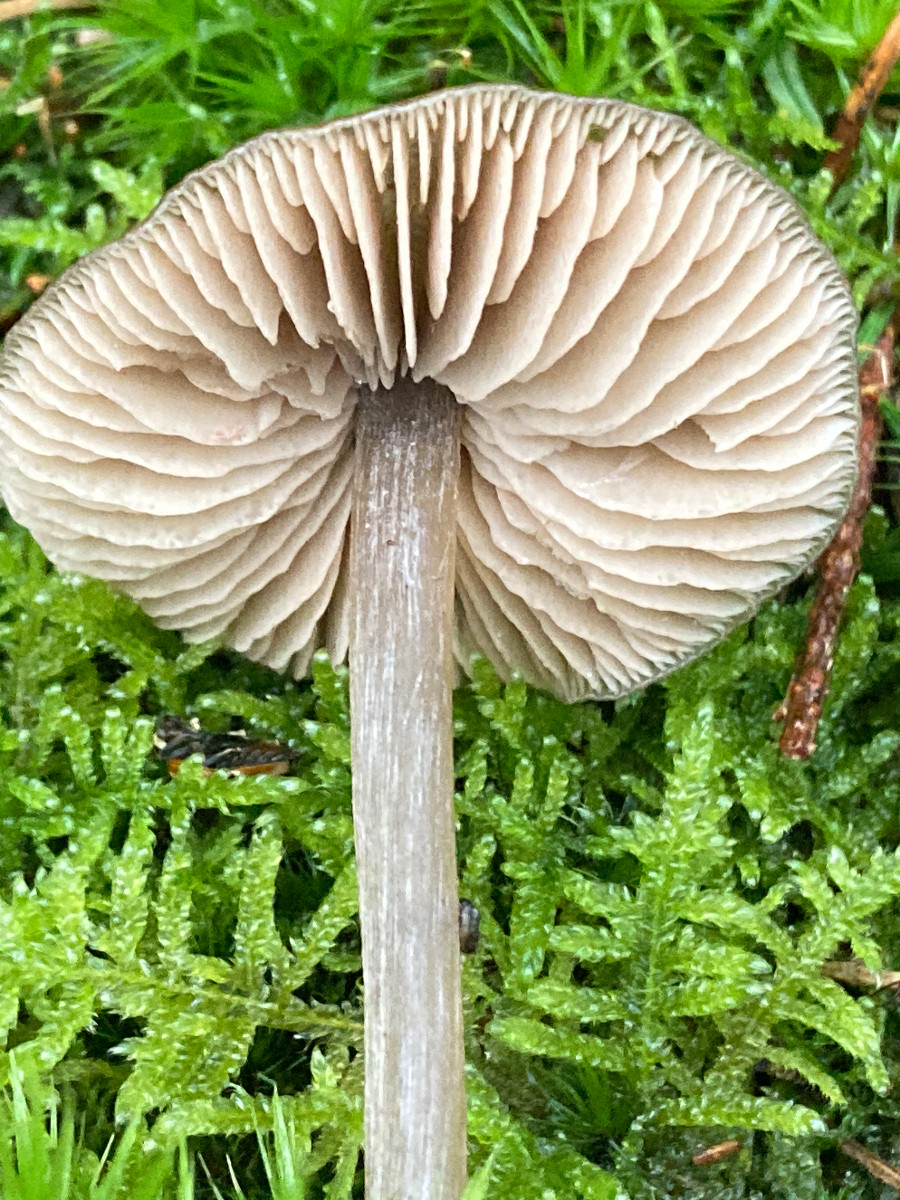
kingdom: Fungi
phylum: Basidiomycota
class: Agaricomycetes
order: Agaricales
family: Entolomataceae
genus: Entoloma
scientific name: Entoloma cetratum
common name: voks-rødblad
